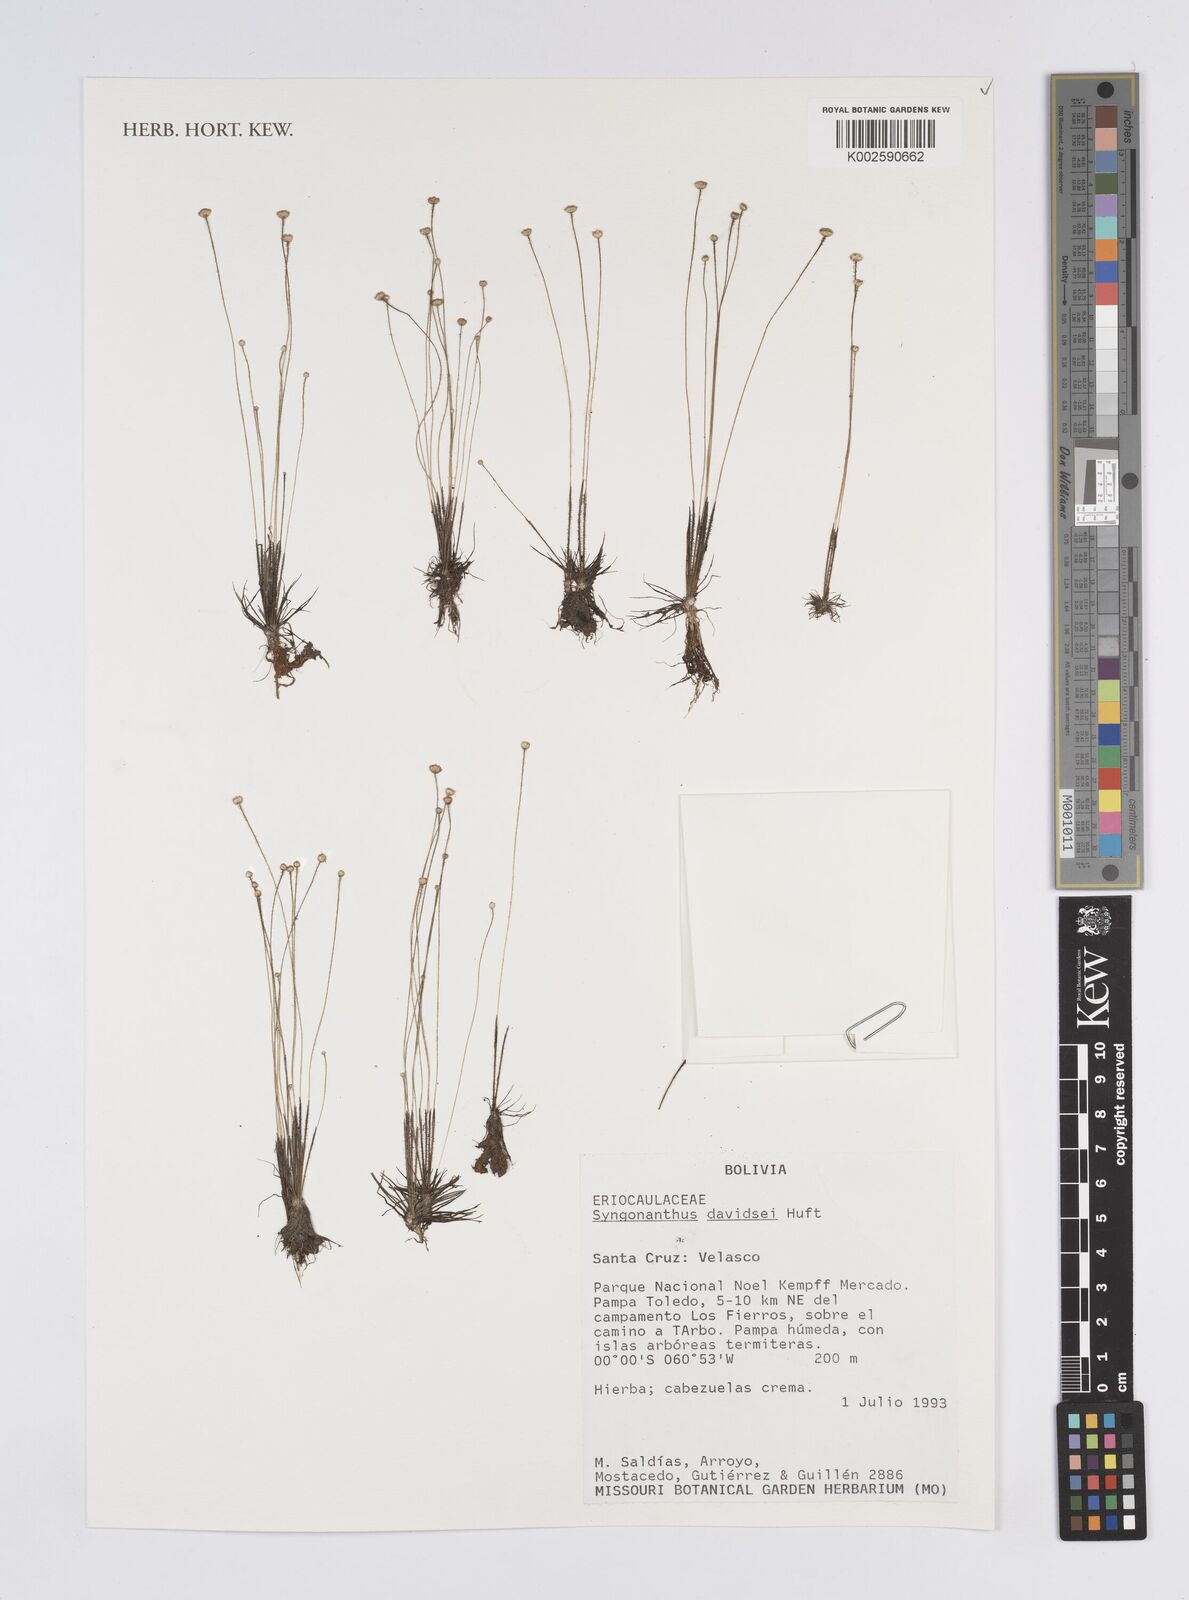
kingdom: Plantae
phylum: Tracheophyta
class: Liliopsida
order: Poales
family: Eriocaulaceae
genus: Syngonanthus
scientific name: Syngonanthus davidsei
